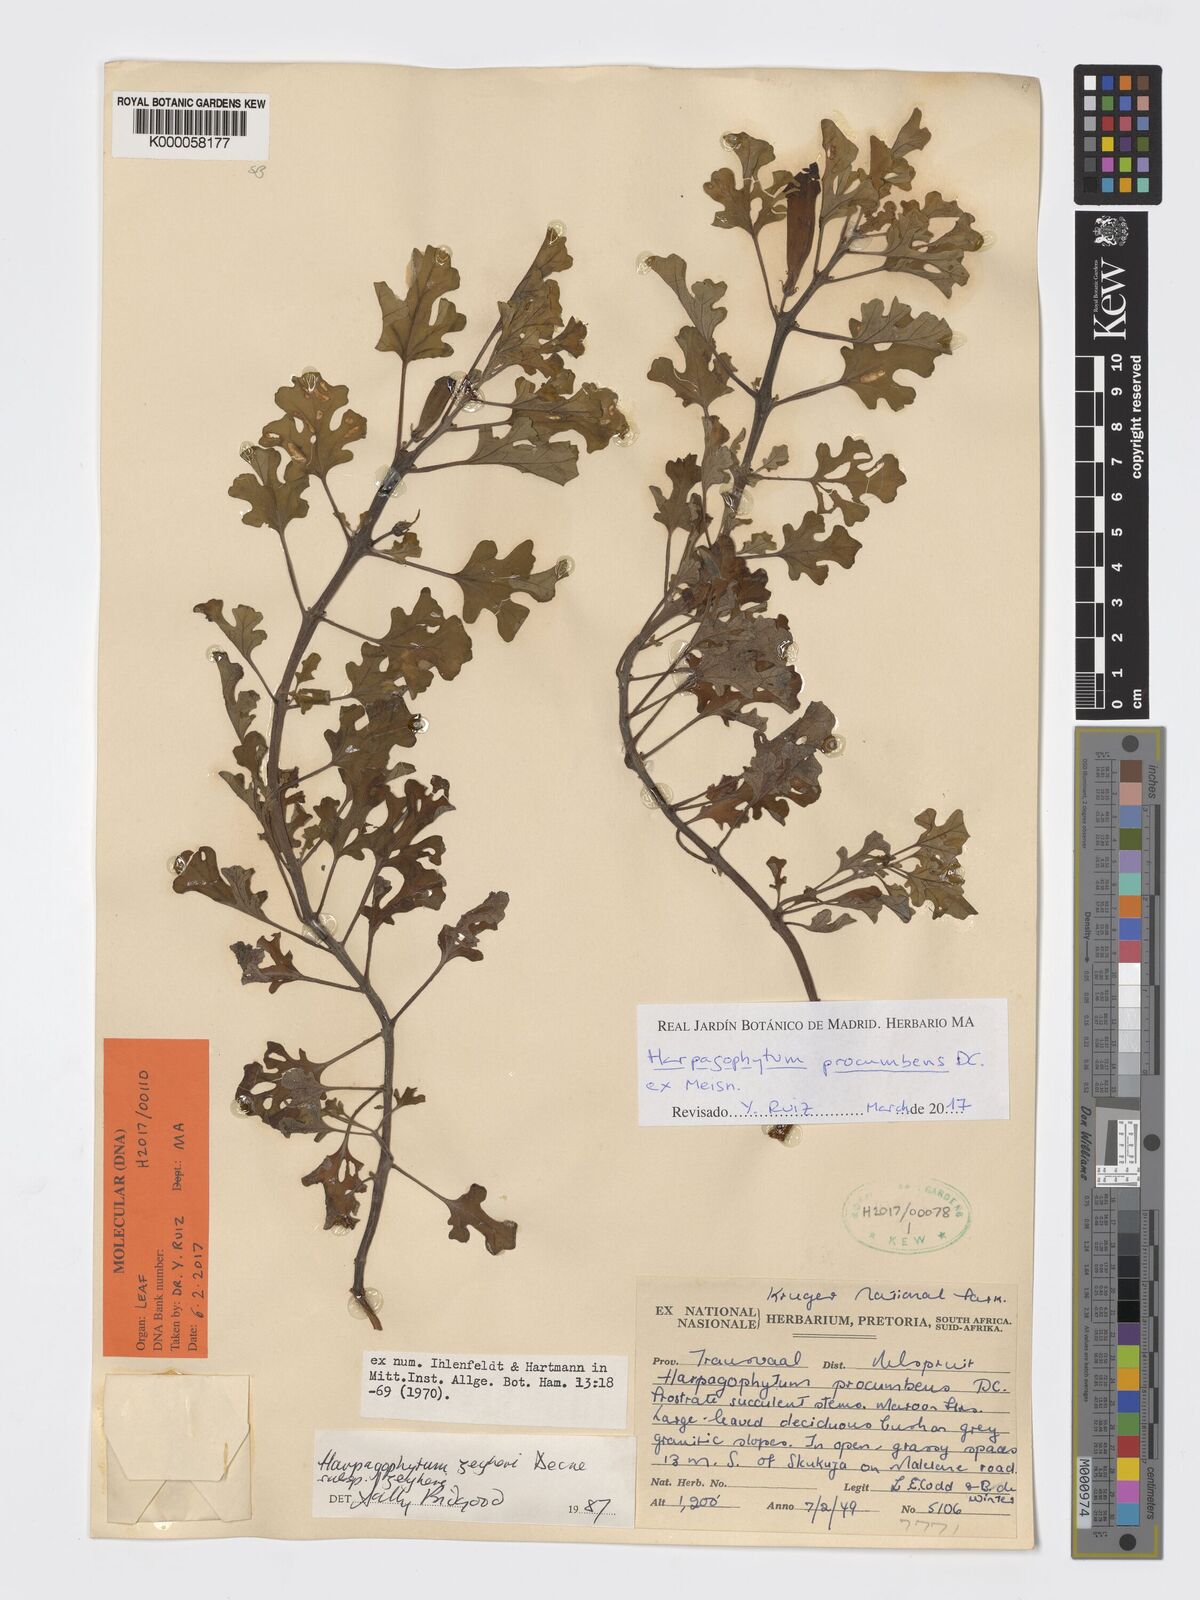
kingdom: Plantae
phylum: Tracheophyta
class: Magnoliopsida
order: Lamiales
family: Pedaliaceae
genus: Harpagophytum
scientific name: Harpagophytum zeyheri
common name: Grappleplant
